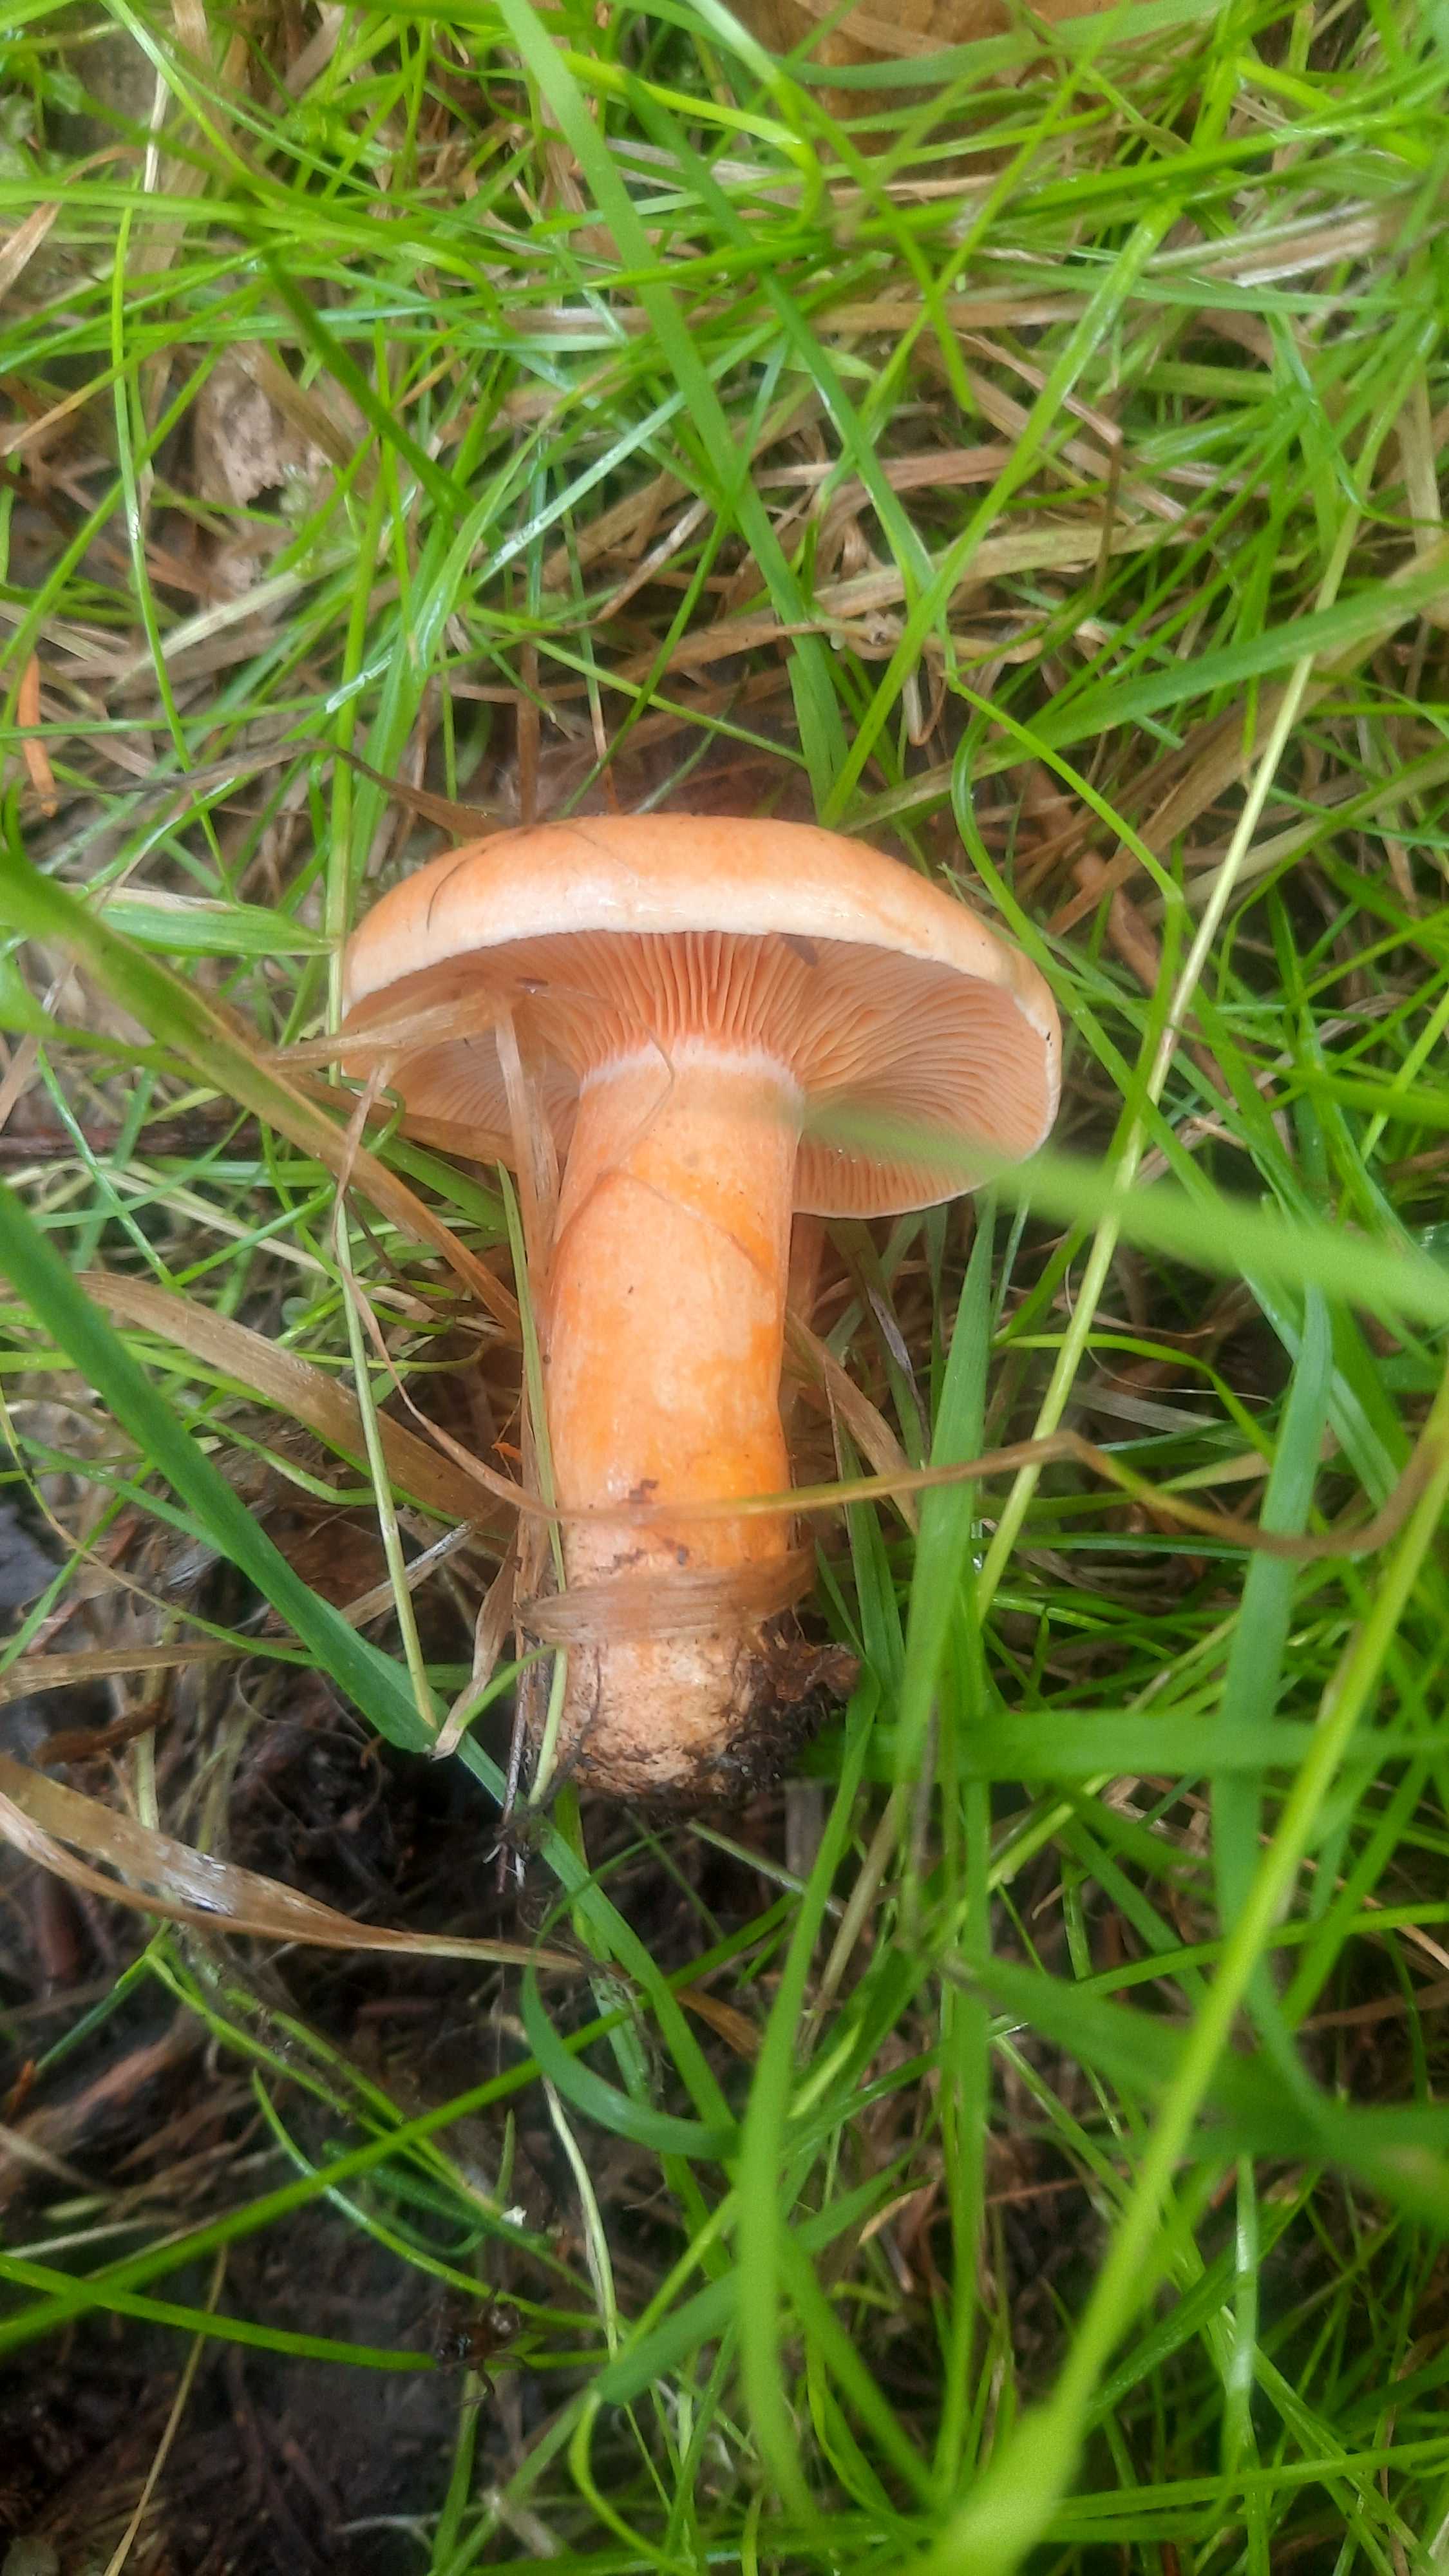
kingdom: Fungi
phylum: Basidiomycota
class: Agaricomycetes
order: Russulales
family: Russulaceae
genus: Lactarius
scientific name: Lactarius deterrimus
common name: gran-mælkehat
